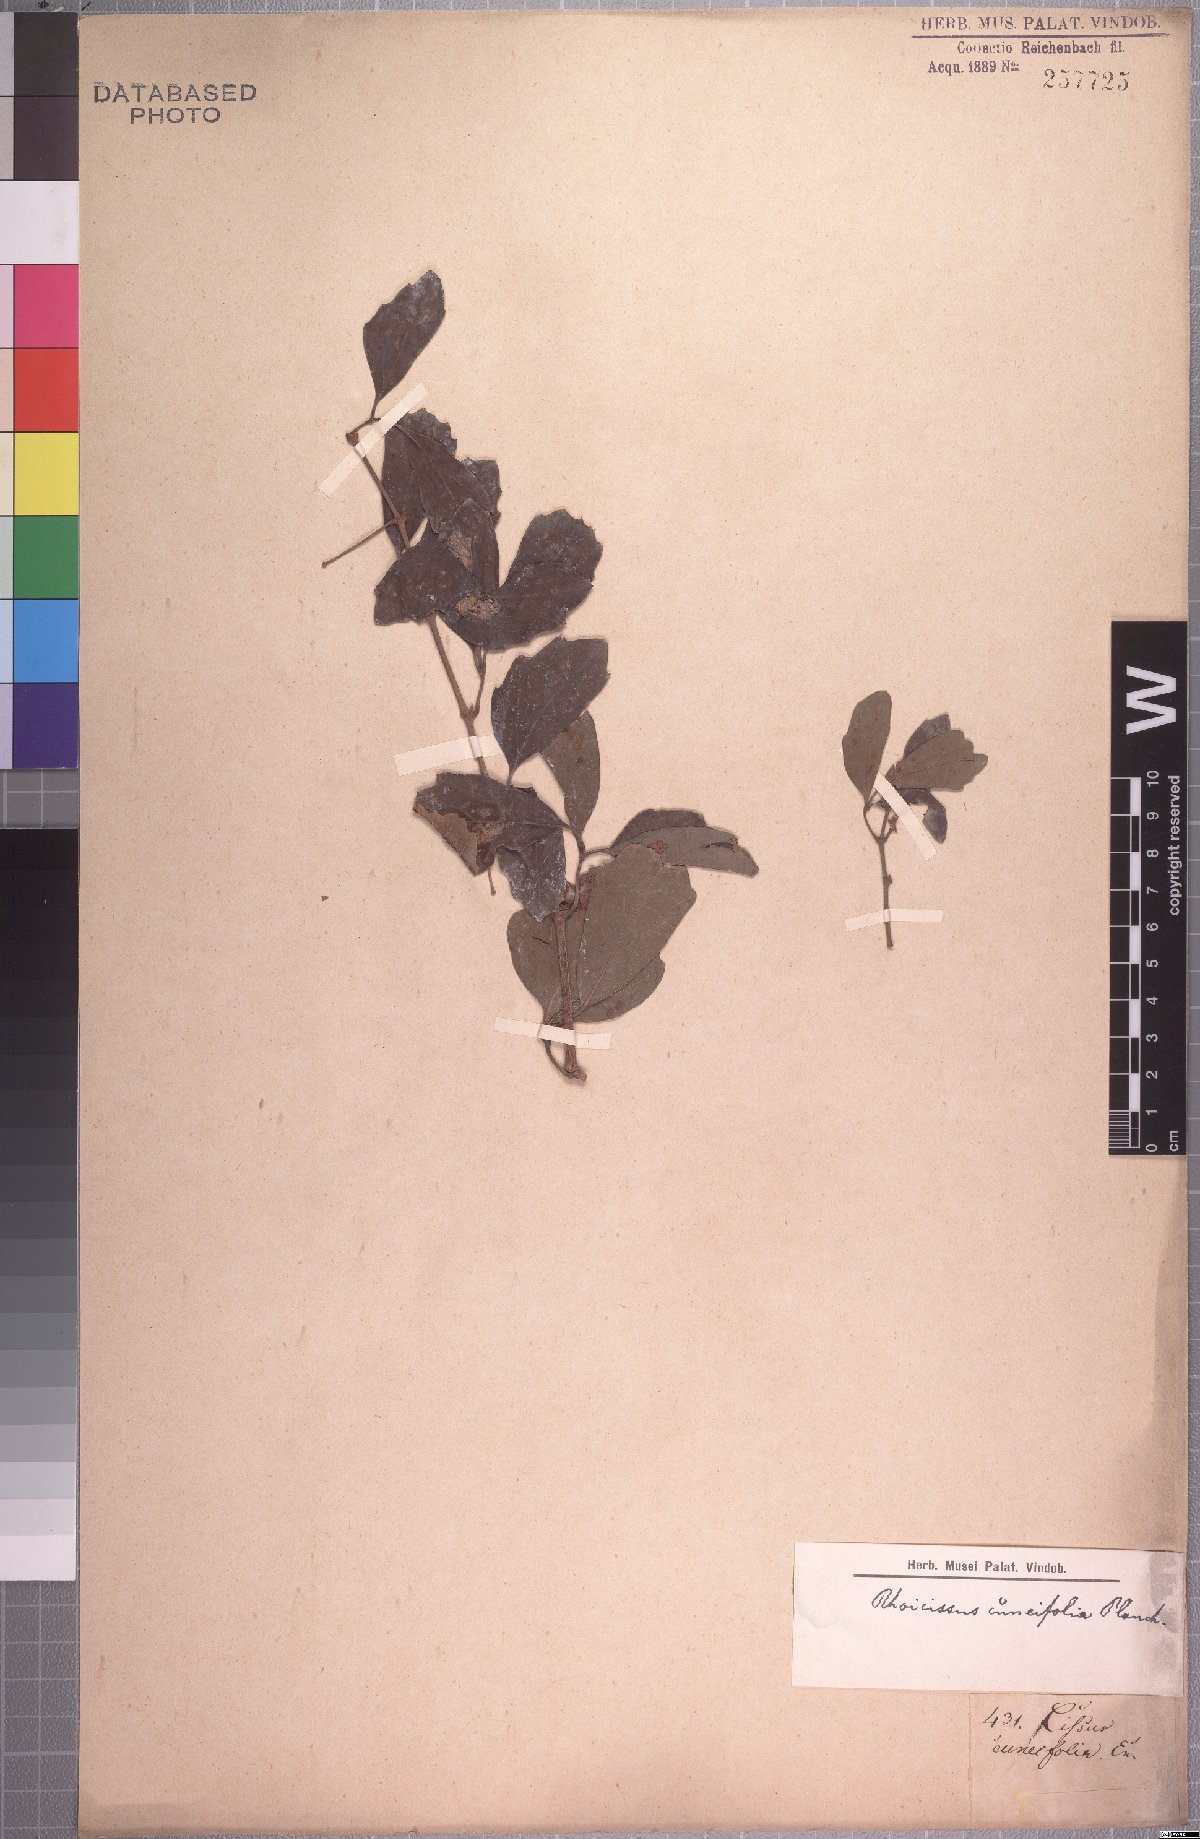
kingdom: Plantae
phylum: Tracheophyta
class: Magnoliopsida
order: Vitales
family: Vitaceae
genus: Rhoicissus
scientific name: Rhoicissus tridentata
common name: Common forest grape
